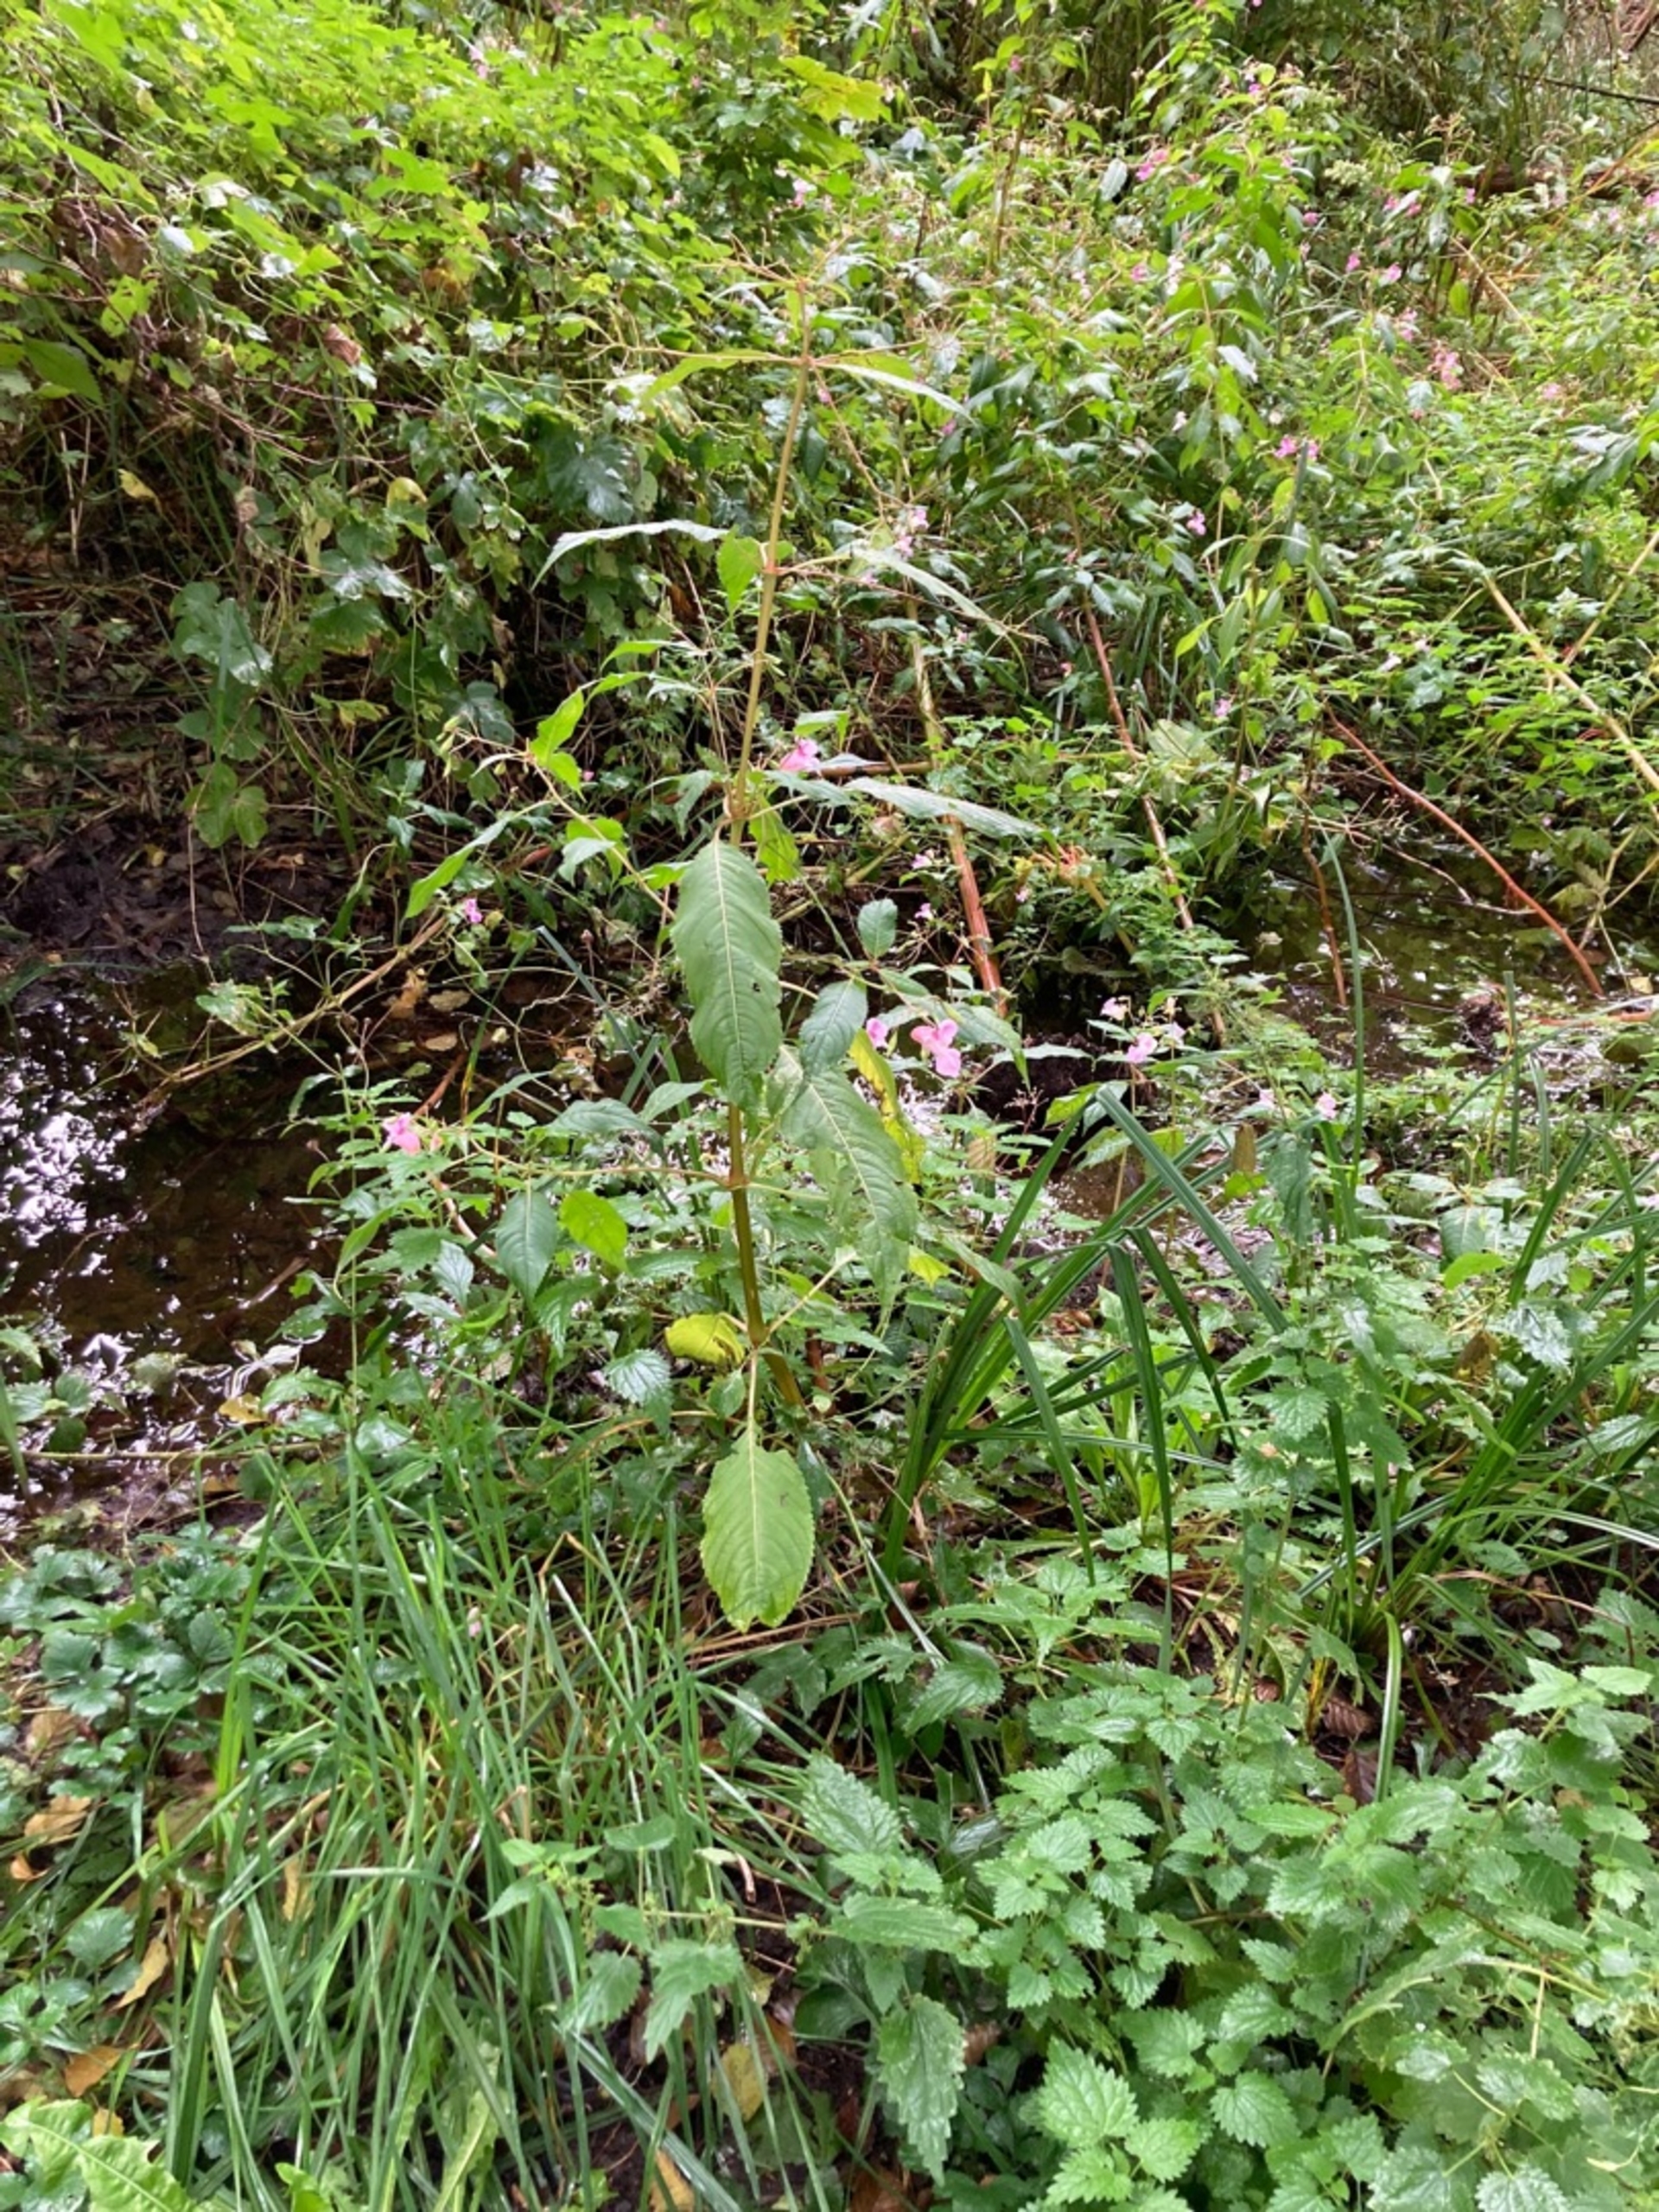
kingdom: Plantae
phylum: Tracheophyta
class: Magnoliopsida
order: Ericales
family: Balsaminaceae
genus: Impatiens
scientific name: Impatiens glandulifera
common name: Kæmpe-balsamin
